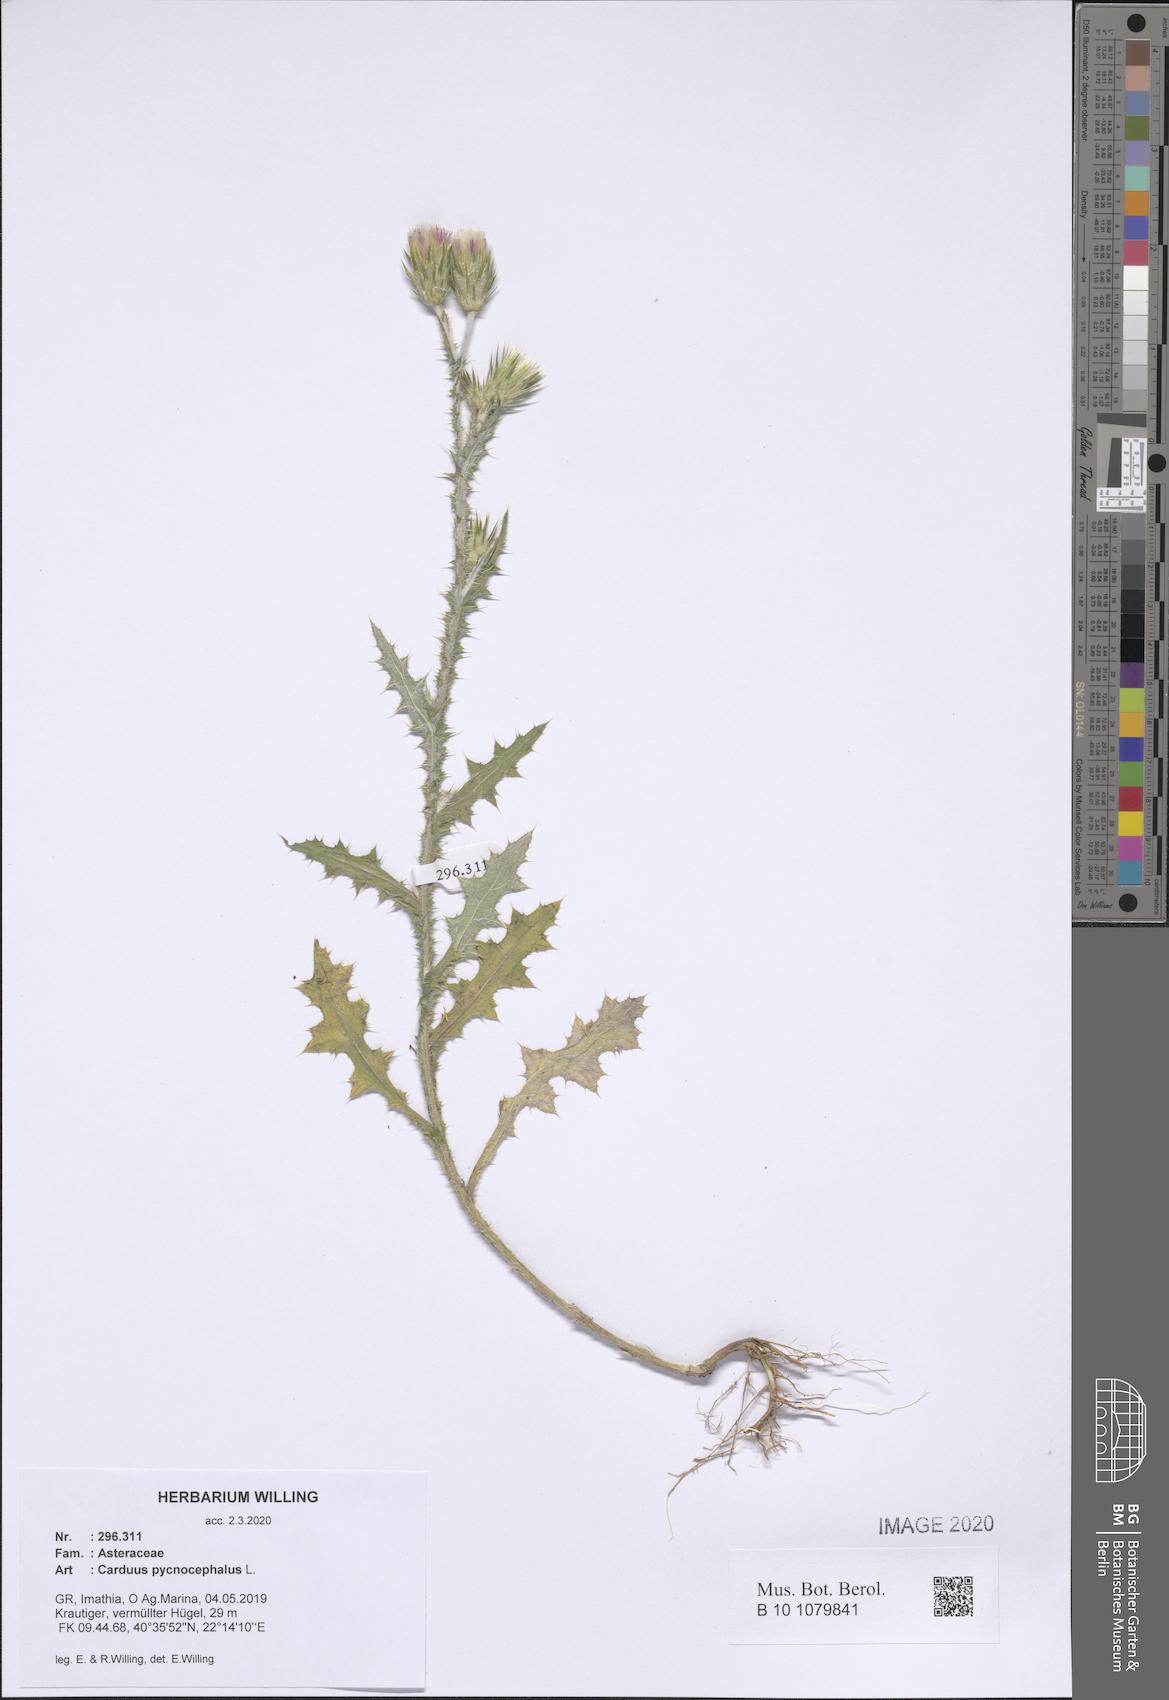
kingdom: Plantae
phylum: Tracheophyta
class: Magnoliopsida
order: Asterales
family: Asteraceae
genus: Carduus
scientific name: Carduus pycnocephalus
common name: Plymouth thistle
